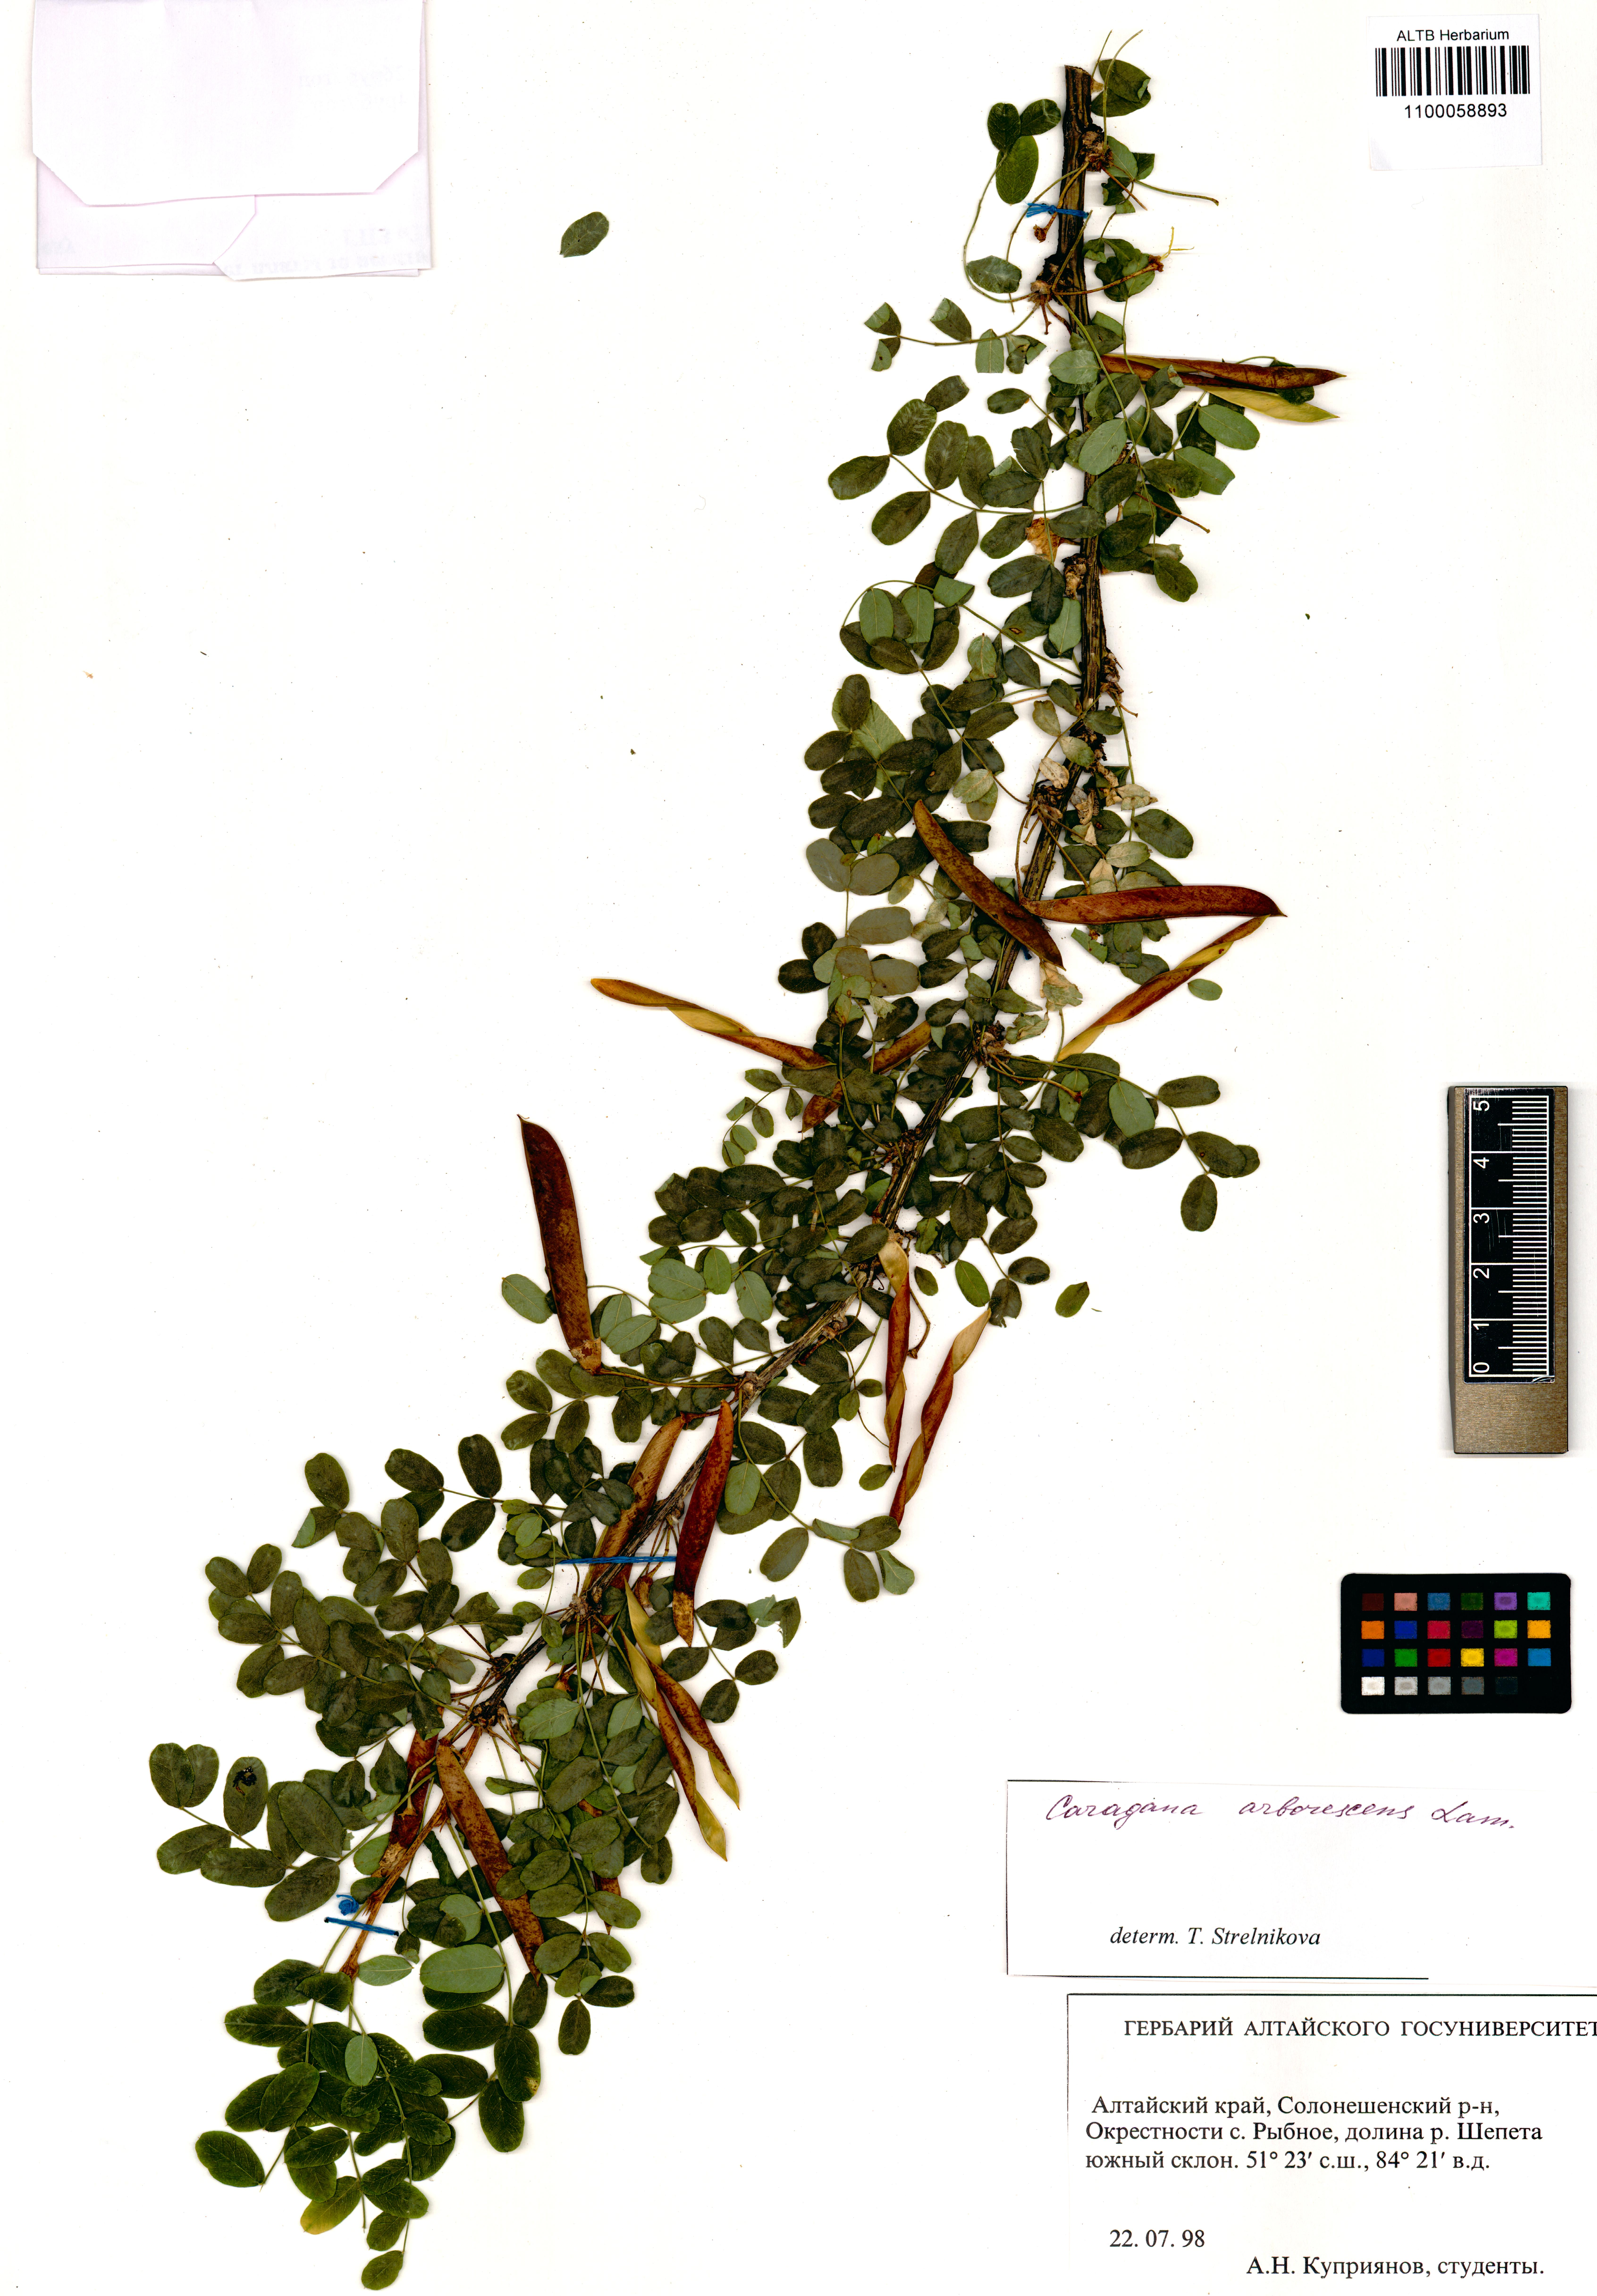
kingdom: Plantae
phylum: Tracheophyta
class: Magnoliopsida
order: Fabales
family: Fabaceae
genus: Caragana
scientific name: Caragana arborescens
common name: Siberian peashrub
